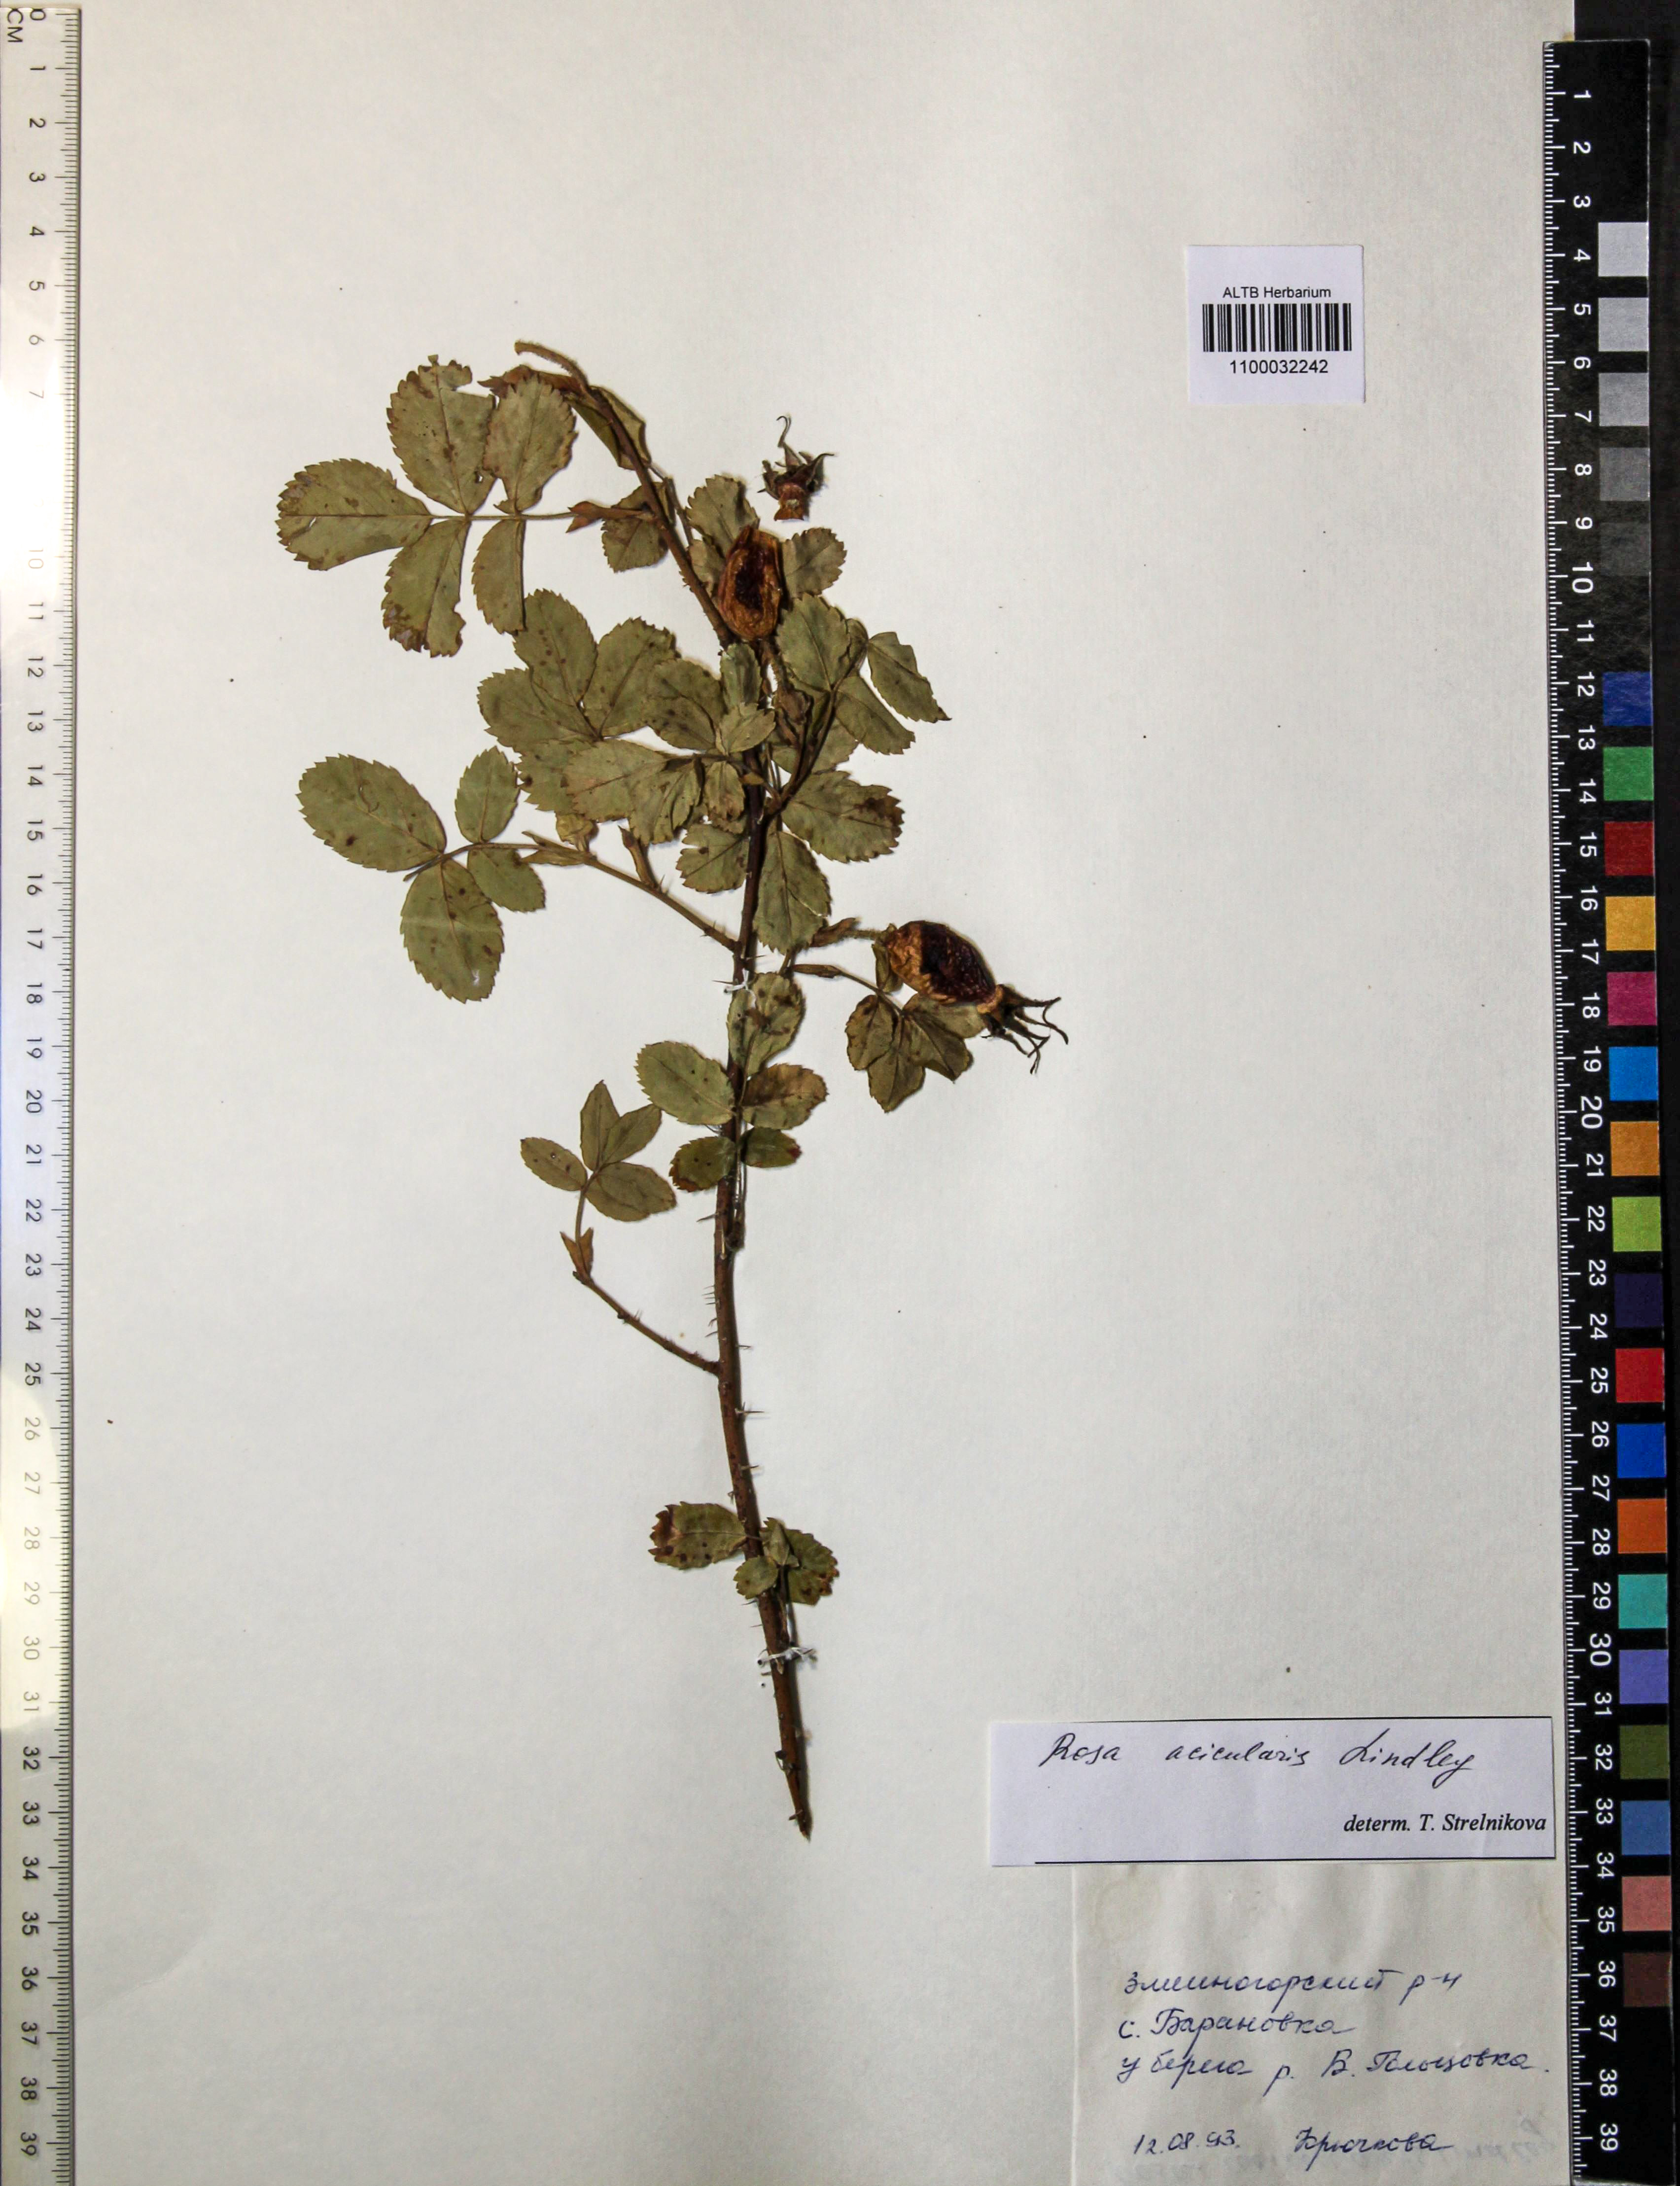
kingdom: Plantae
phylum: Tracheophyta
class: Magnoliopsida
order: Rosales
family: Rosaceae
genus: Rosa
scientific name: Rosa acicularis
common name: Prickly rose
